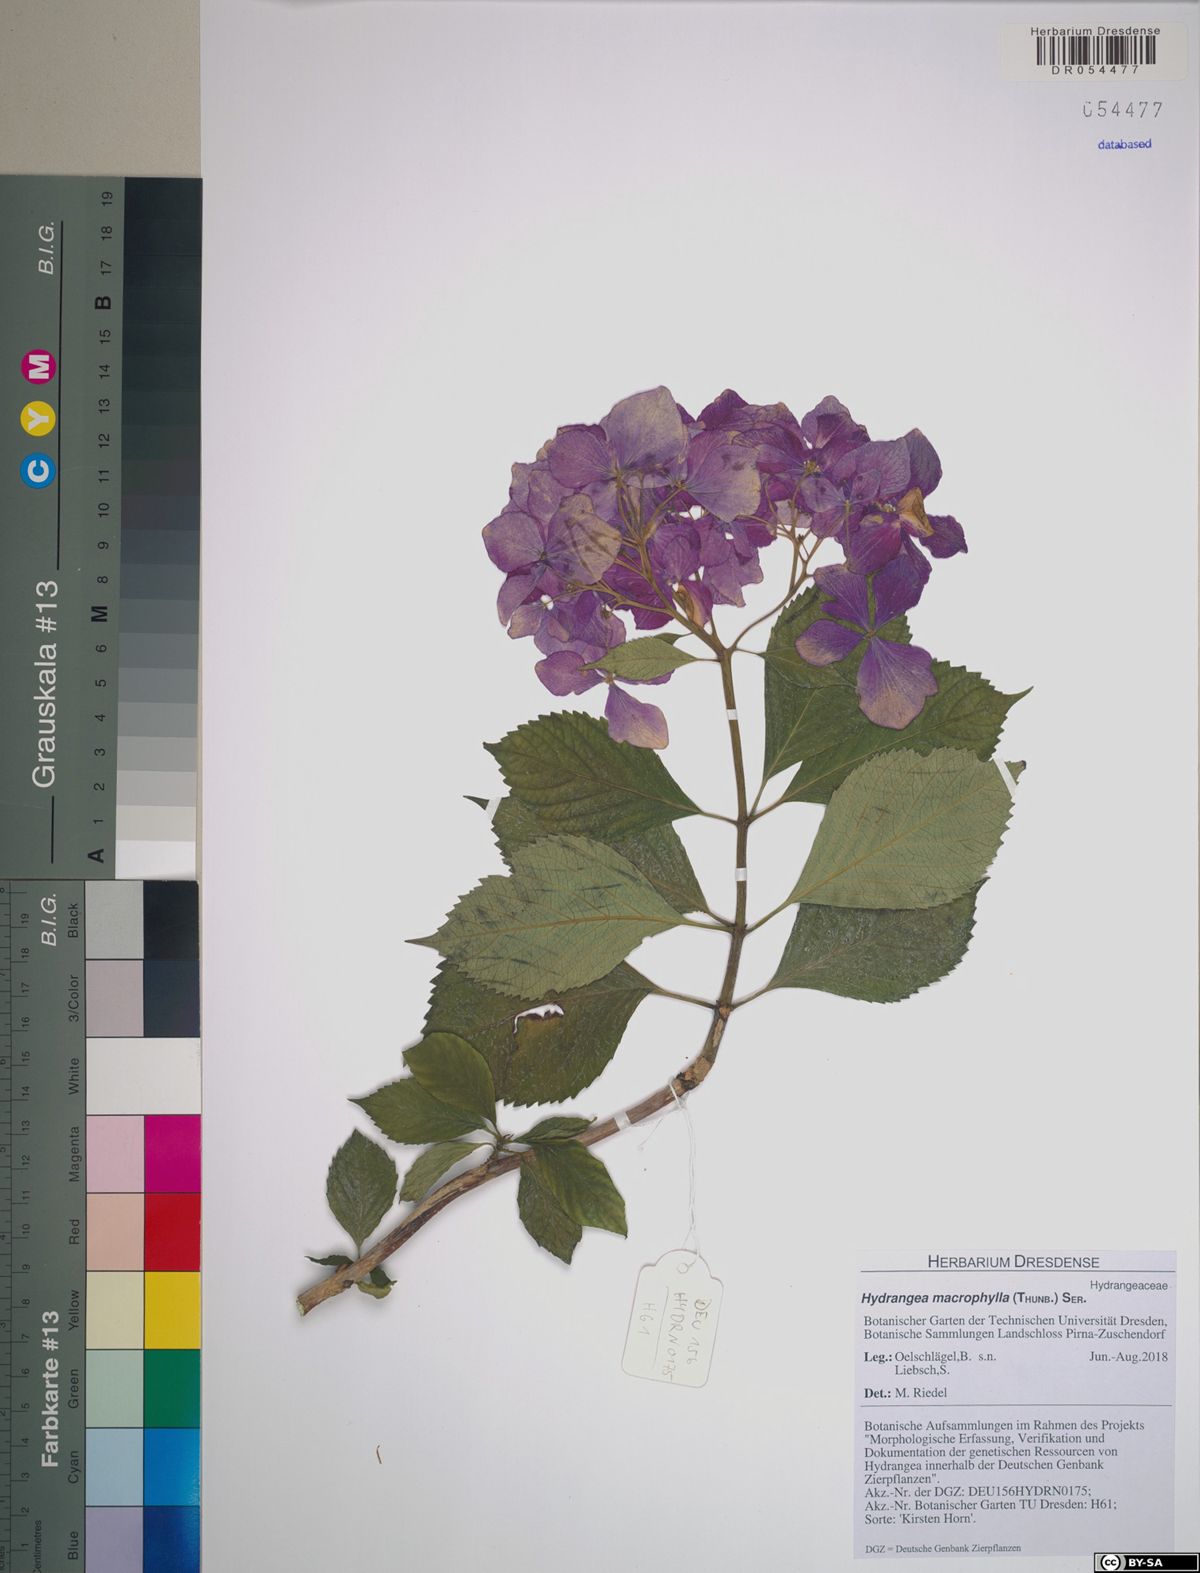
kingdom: Plantae
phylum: Tracheophyta
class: Magnoliopsida
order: Cornales
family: Hydrangeaceae
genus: Hydrangea
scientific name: Hydrangea macrophylla
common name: Hydrangea
